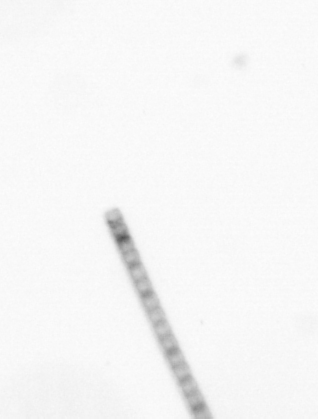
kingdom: Chromista
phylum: Ochrophyta
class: Bacillariophyceae
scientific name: Bacillariophyceae
